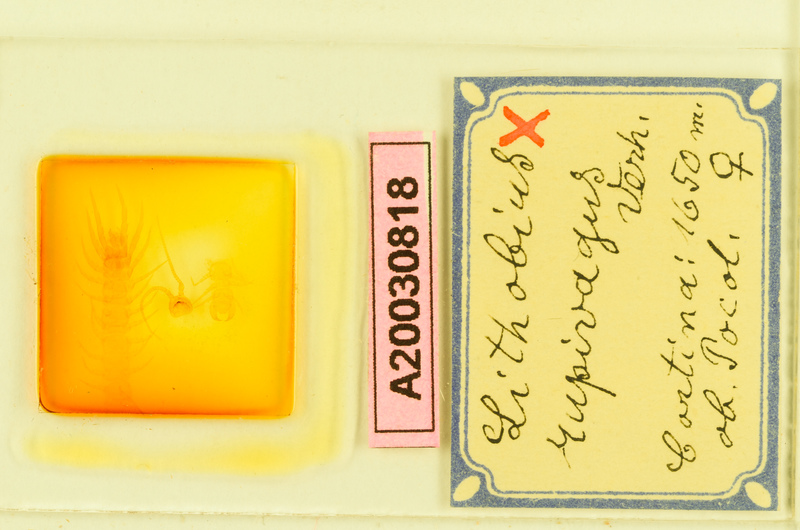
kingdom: Animalia
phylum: Arthropoda
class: Chilopoda
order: Lithobiomorpha
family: Lithobiidae
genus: Lithobius
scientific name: Lithobius lucifugus
